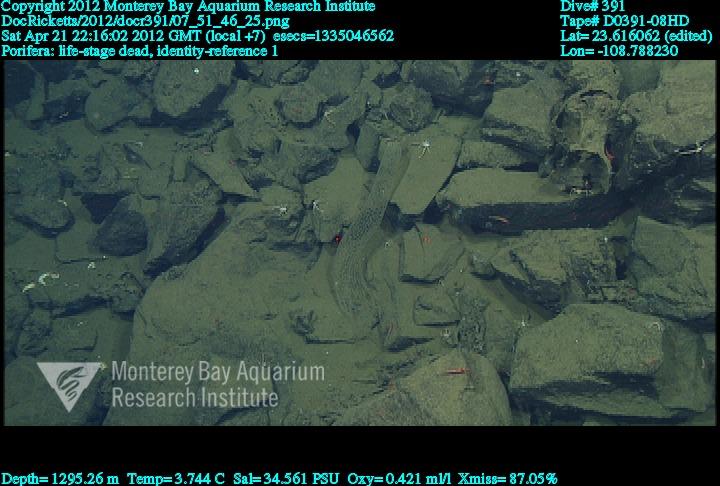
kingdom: Animalia
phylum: Porifera
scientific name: Porifera
